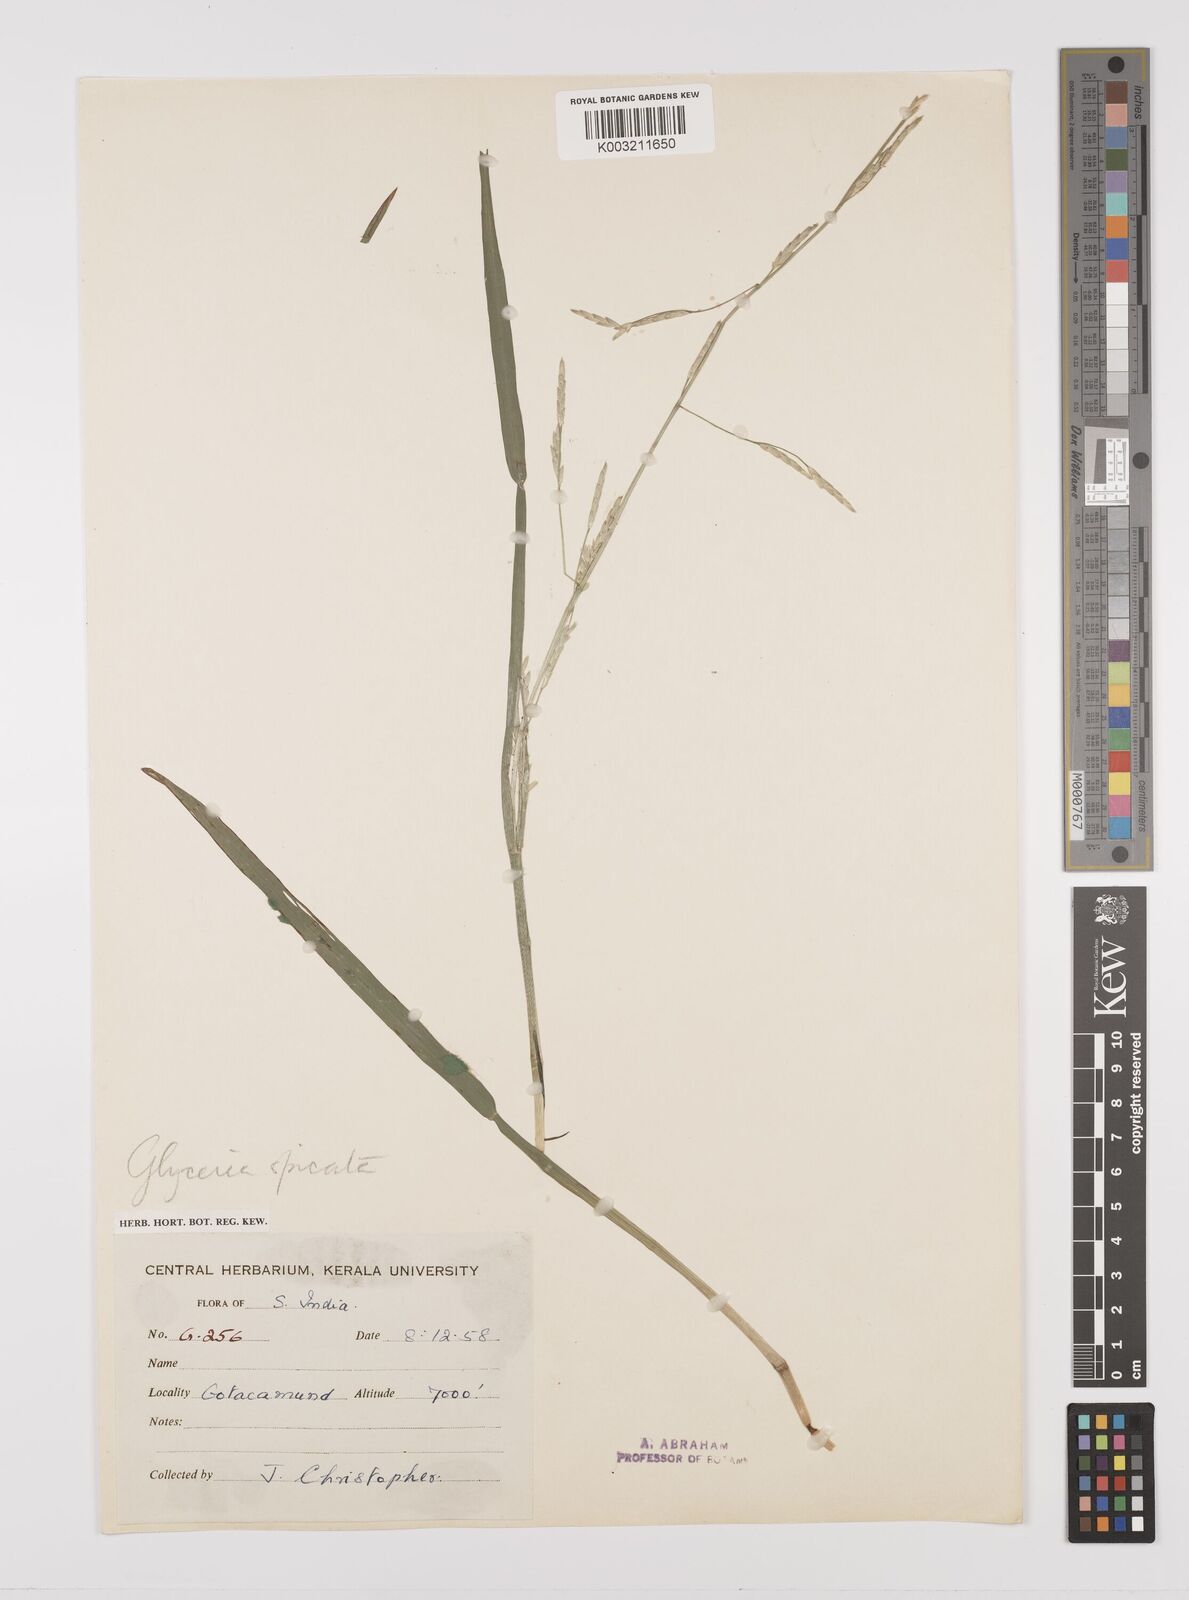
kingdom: Plantae
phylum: Tracheophyta
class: Liliopsida
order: Poales
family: Poaceae
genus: Glyceria
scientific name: Glyceria spicata
